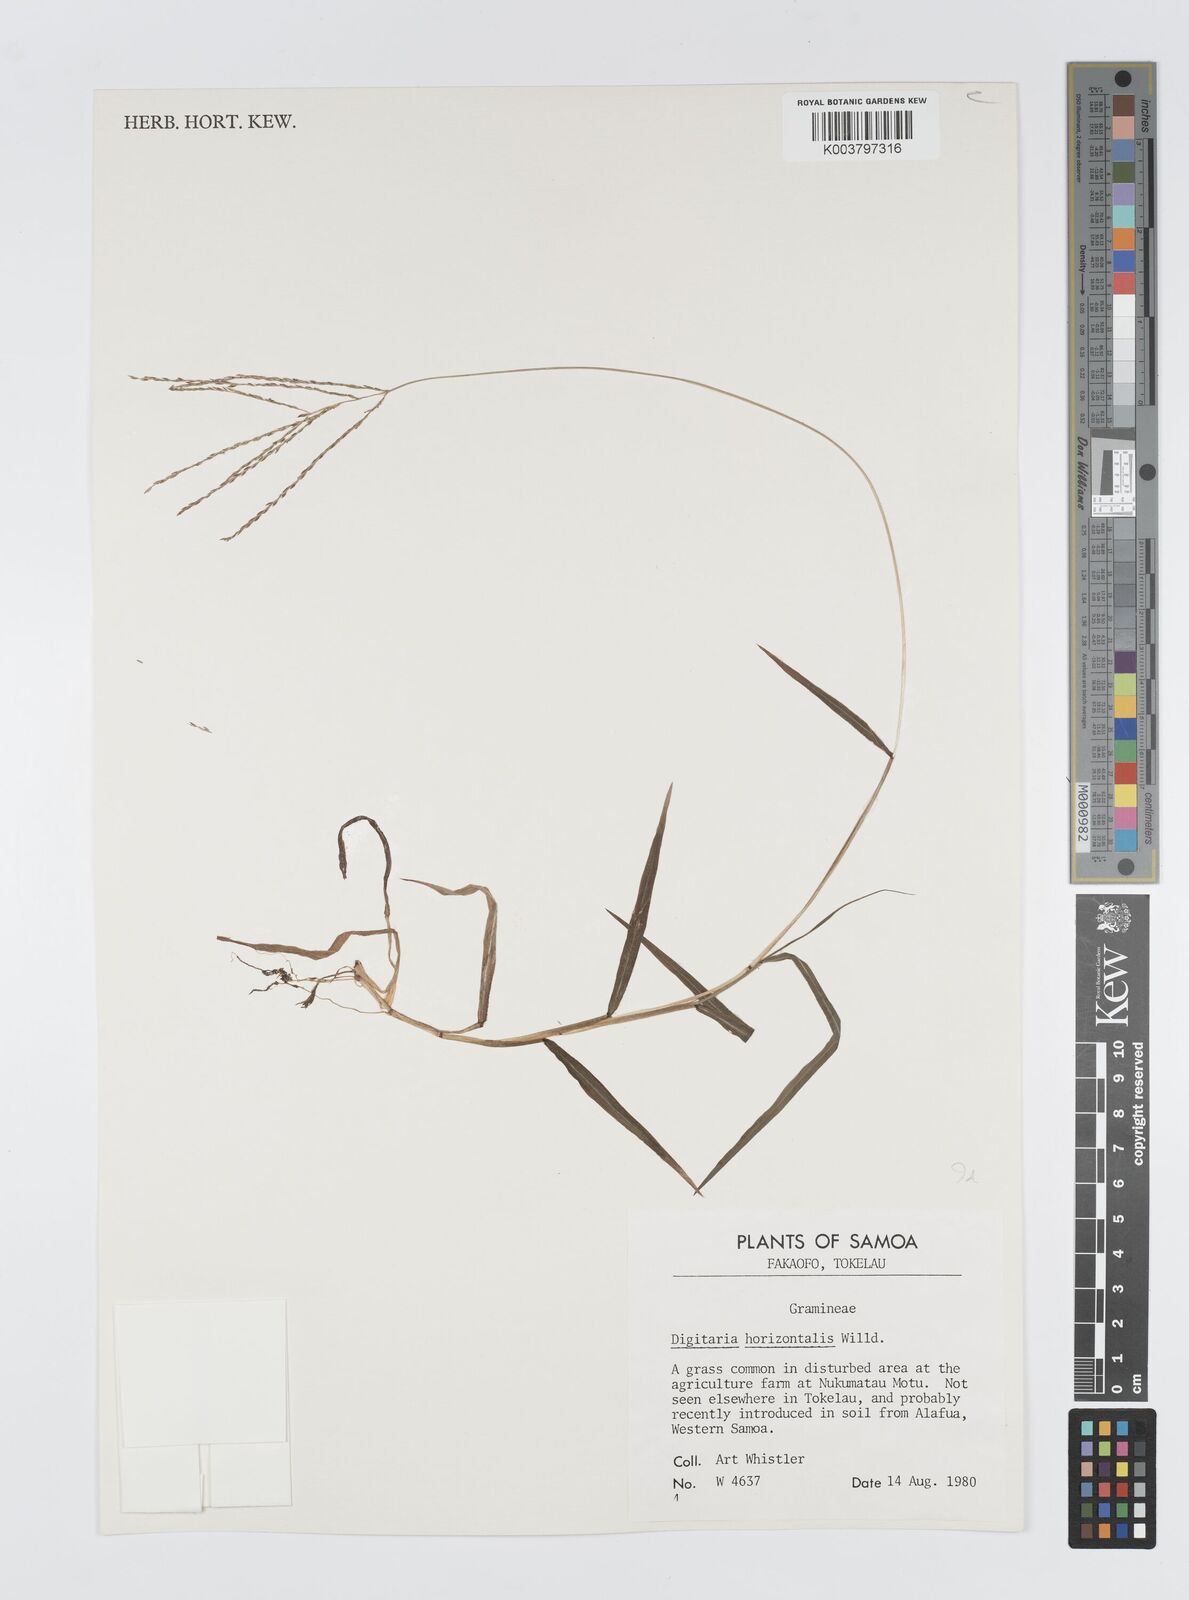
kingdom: Plantae
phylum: Tracheophyta
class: Liliopsida
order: Poales
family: Poaceae
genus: Digitaria
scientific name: Digitaria horizontalis
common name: Jamaican crabgrass
